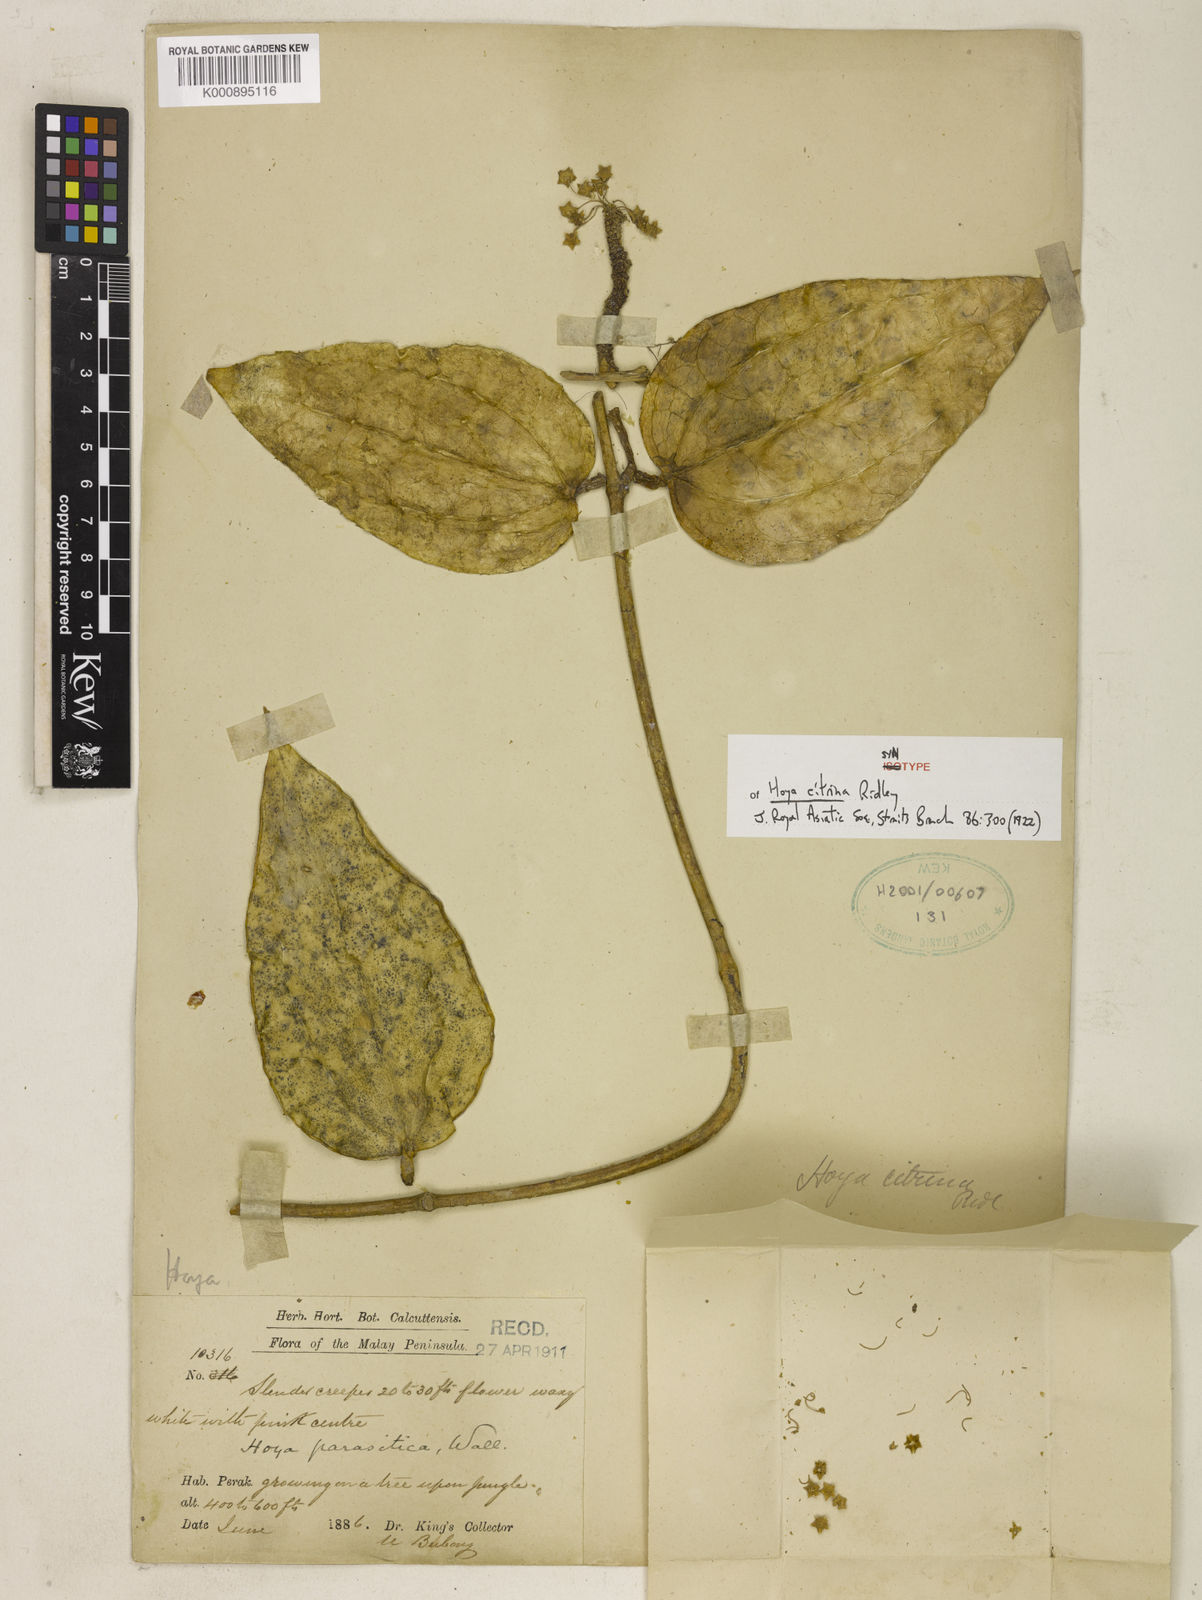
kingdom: Plantae
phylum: Tracheophyta
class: Magnoliopsida
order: Gentianales
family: Apocynaceae
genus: Hoya
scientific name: Hoya verticillata
